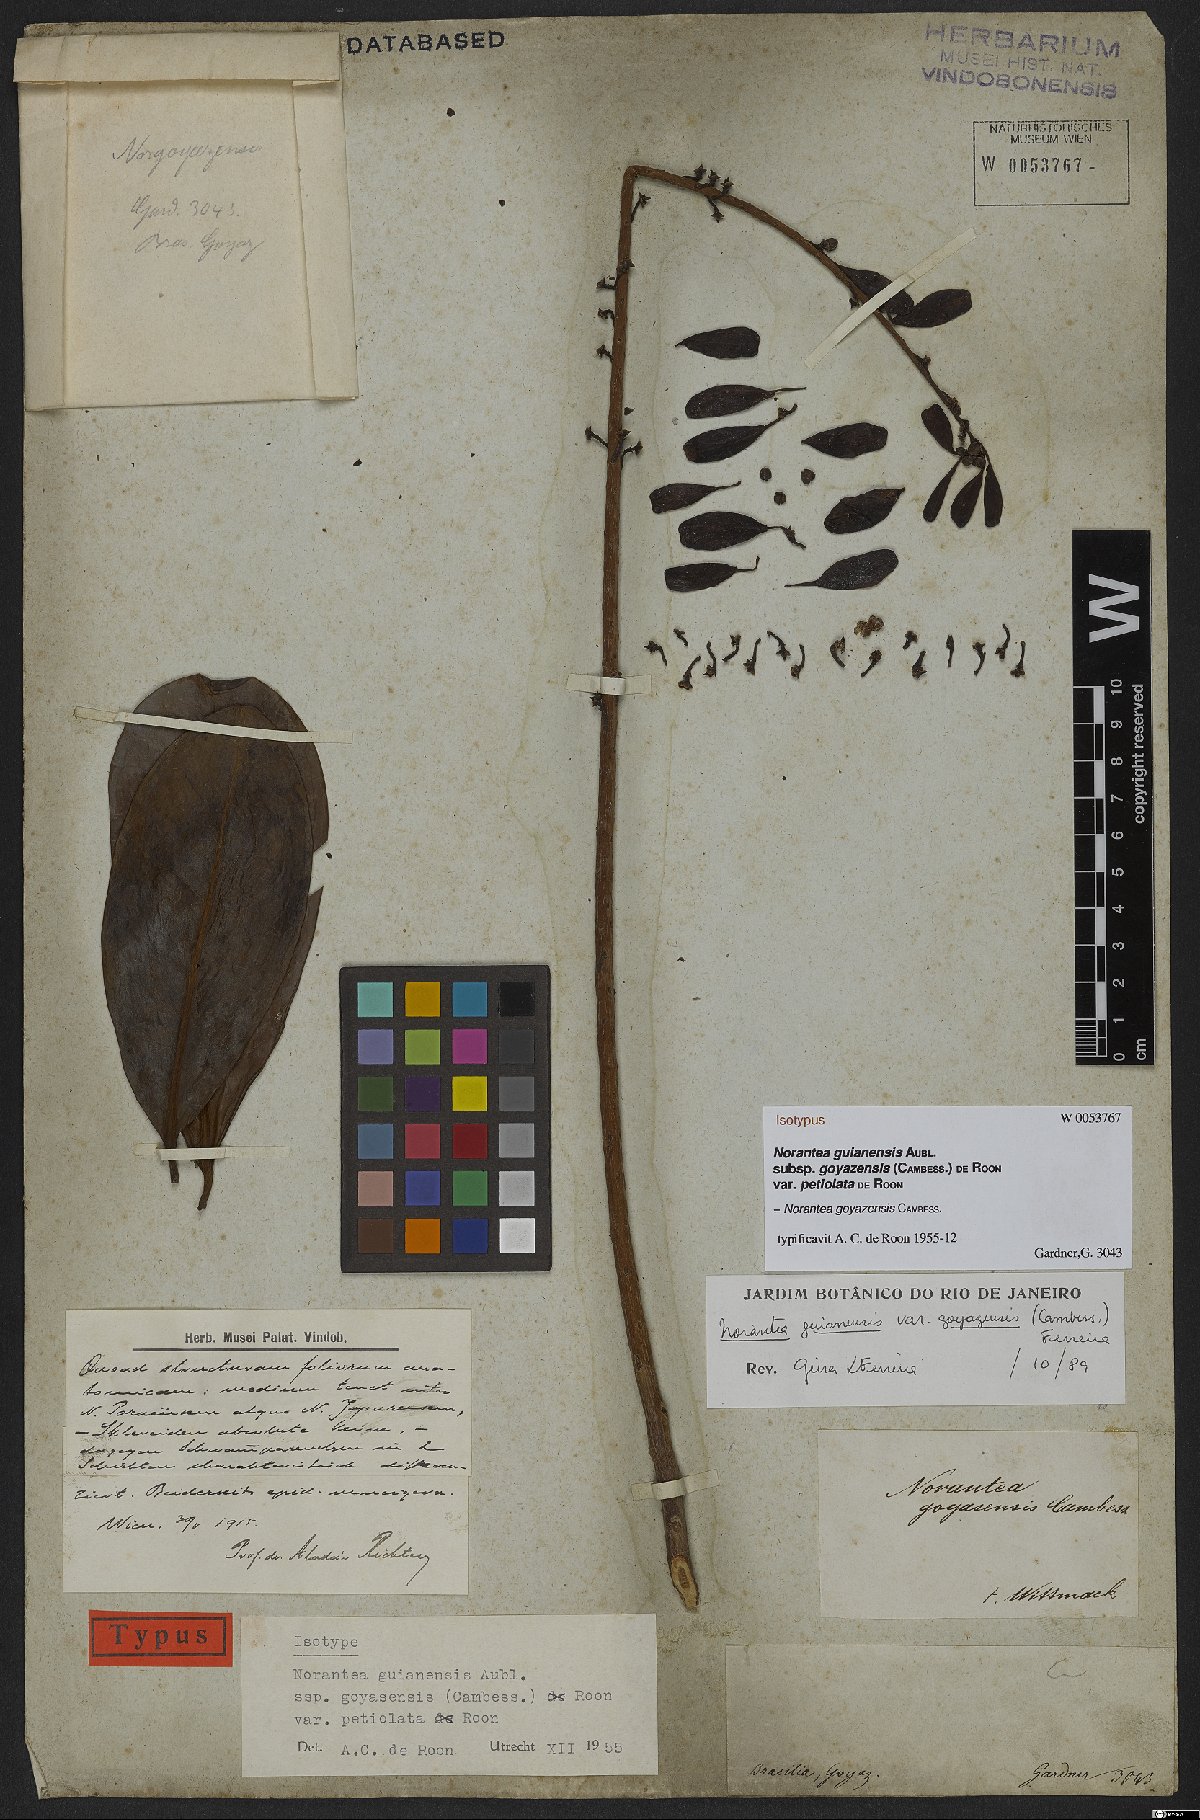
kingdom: Plantae
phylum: Tracheophyta
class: Magnoliopsida
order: Ericales
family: Marcgraviaceae
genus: Norantea
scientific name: Norantea goyazensis
